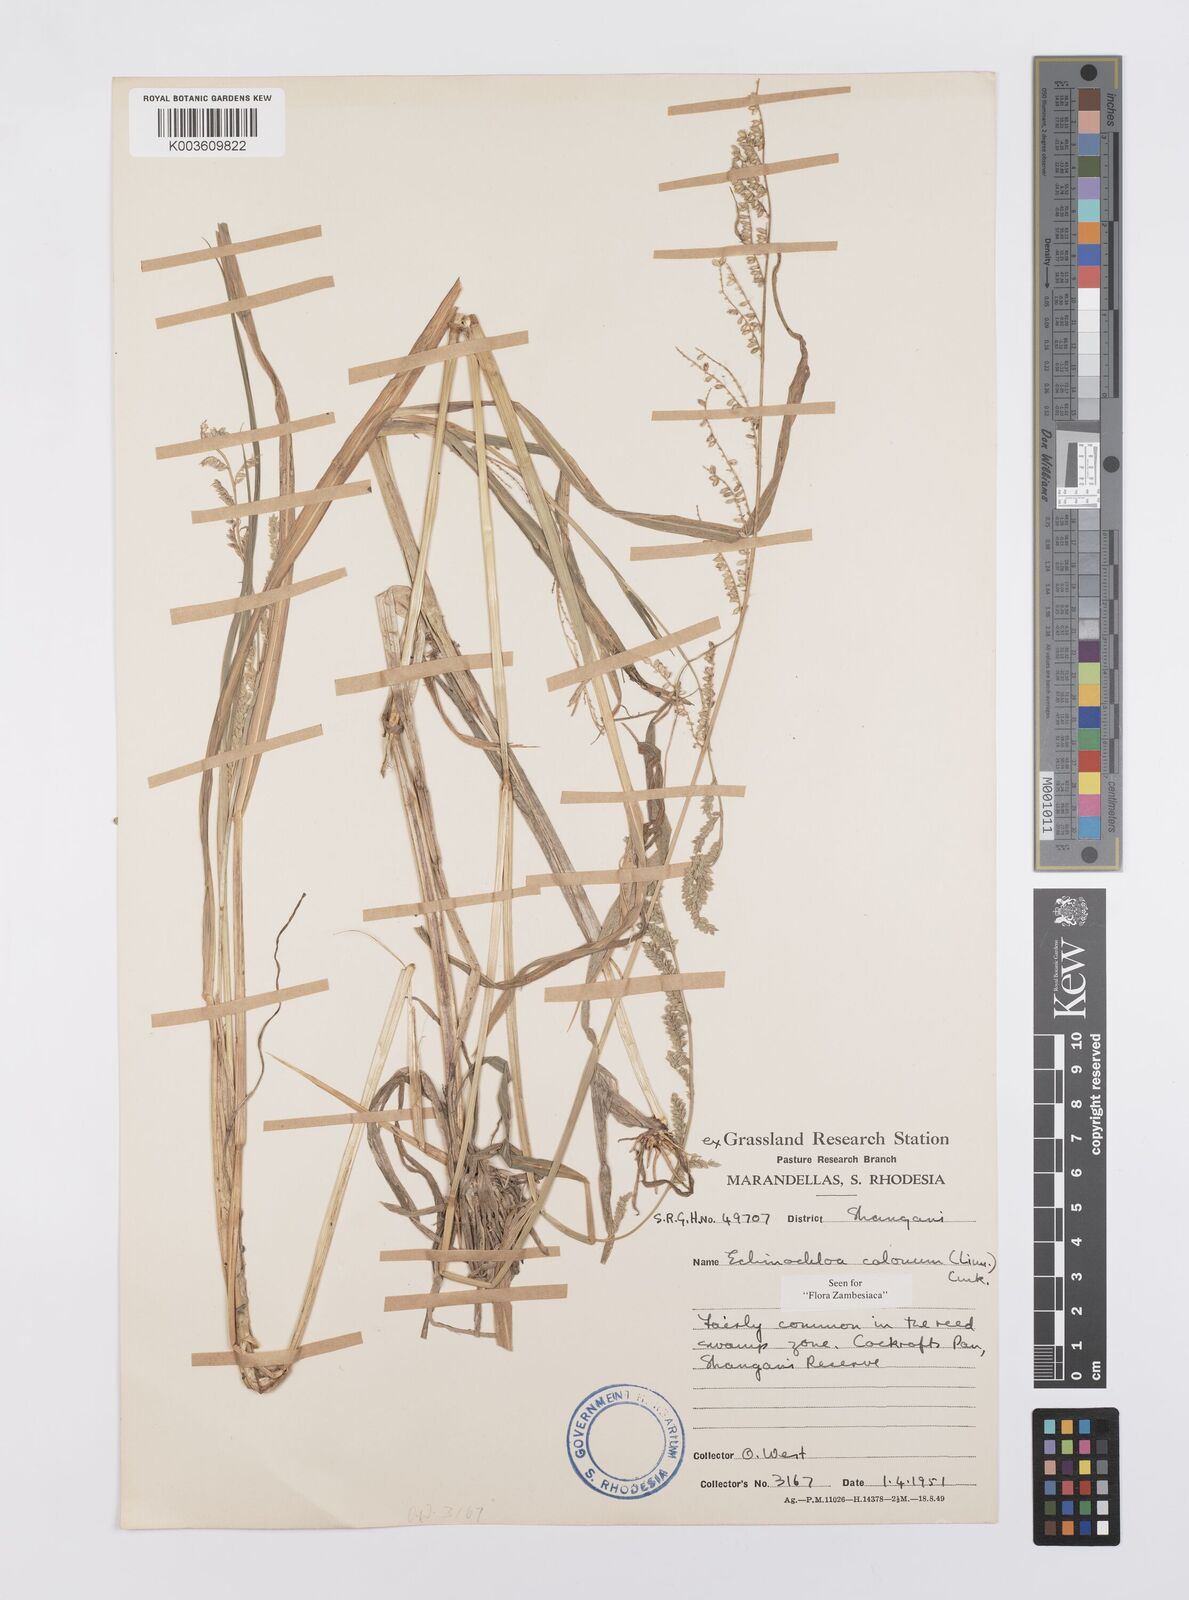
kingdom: Plantae
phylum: Tracheophyta
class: Liliopsida
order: Poales
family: Poaceae
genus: Echinochloa
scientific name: Echinochloa colonum
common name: Jungle rice
